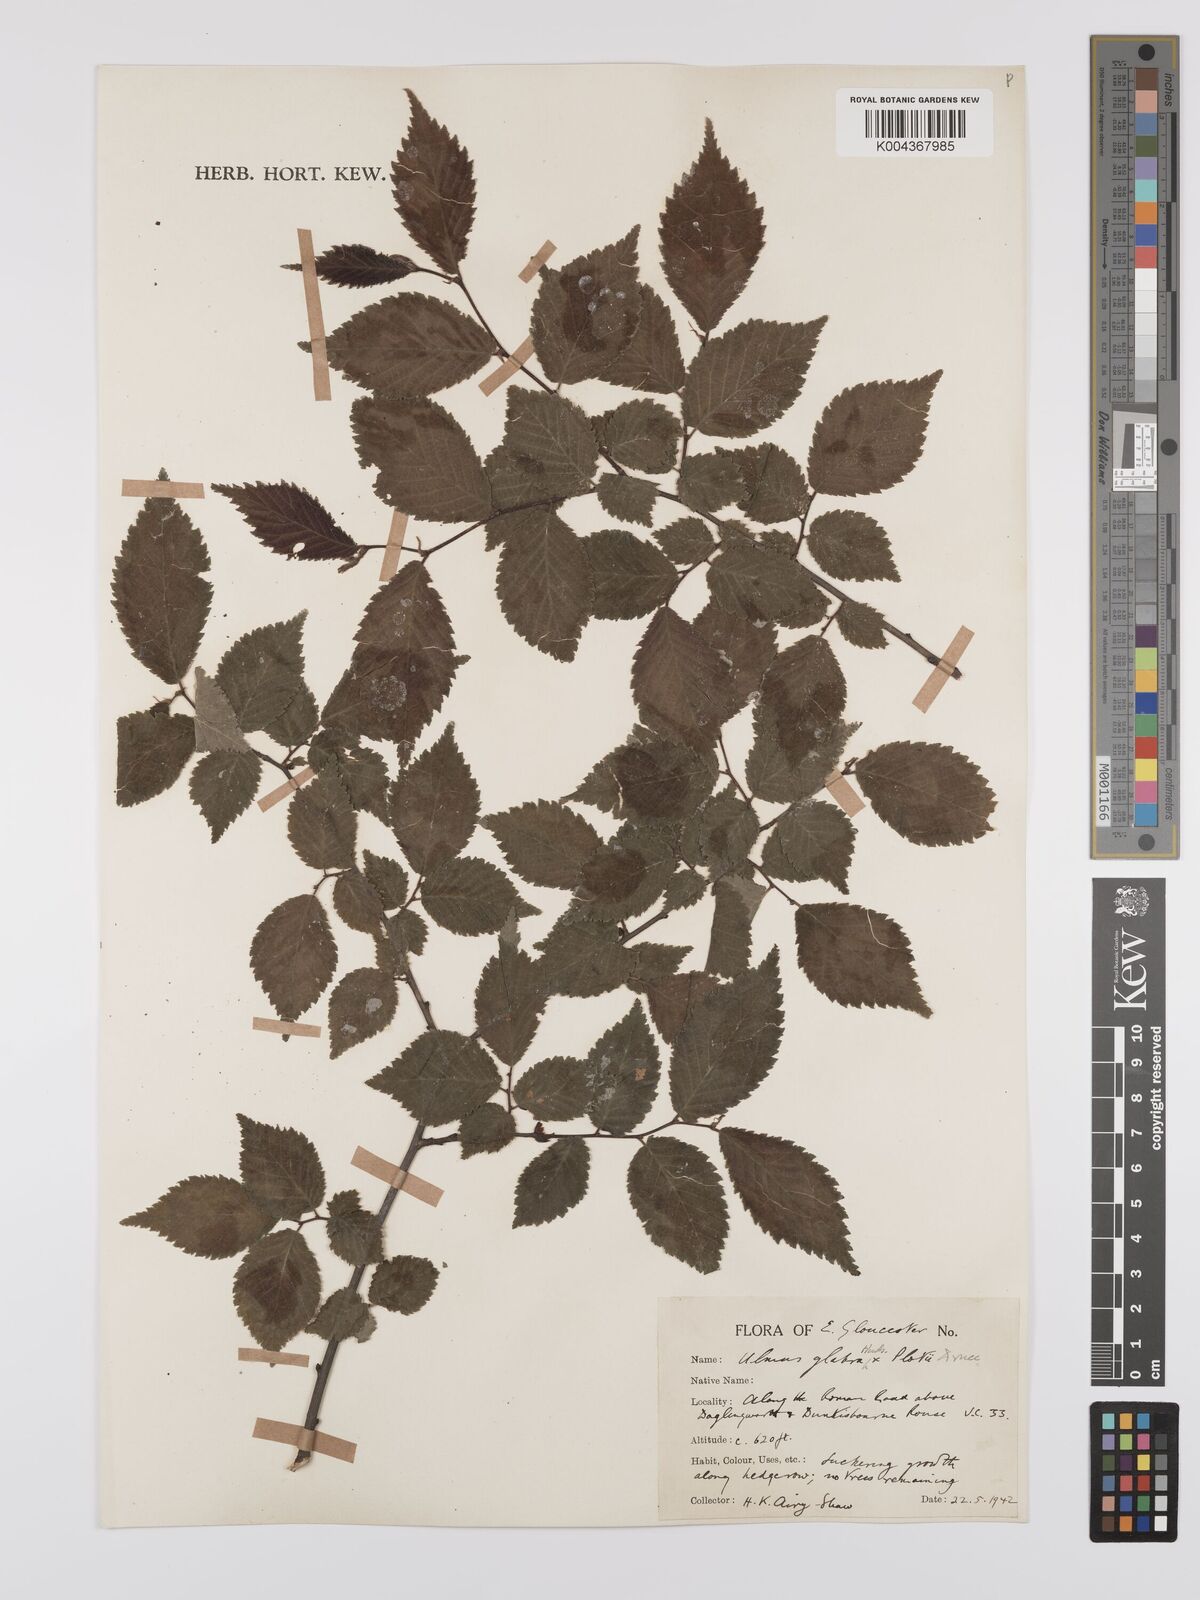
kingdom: Plantae
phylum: Tracheophyta
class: Magnoliopsida
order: Rosales
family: Ulmaceae
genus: Ulmus
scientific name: Ulmus
